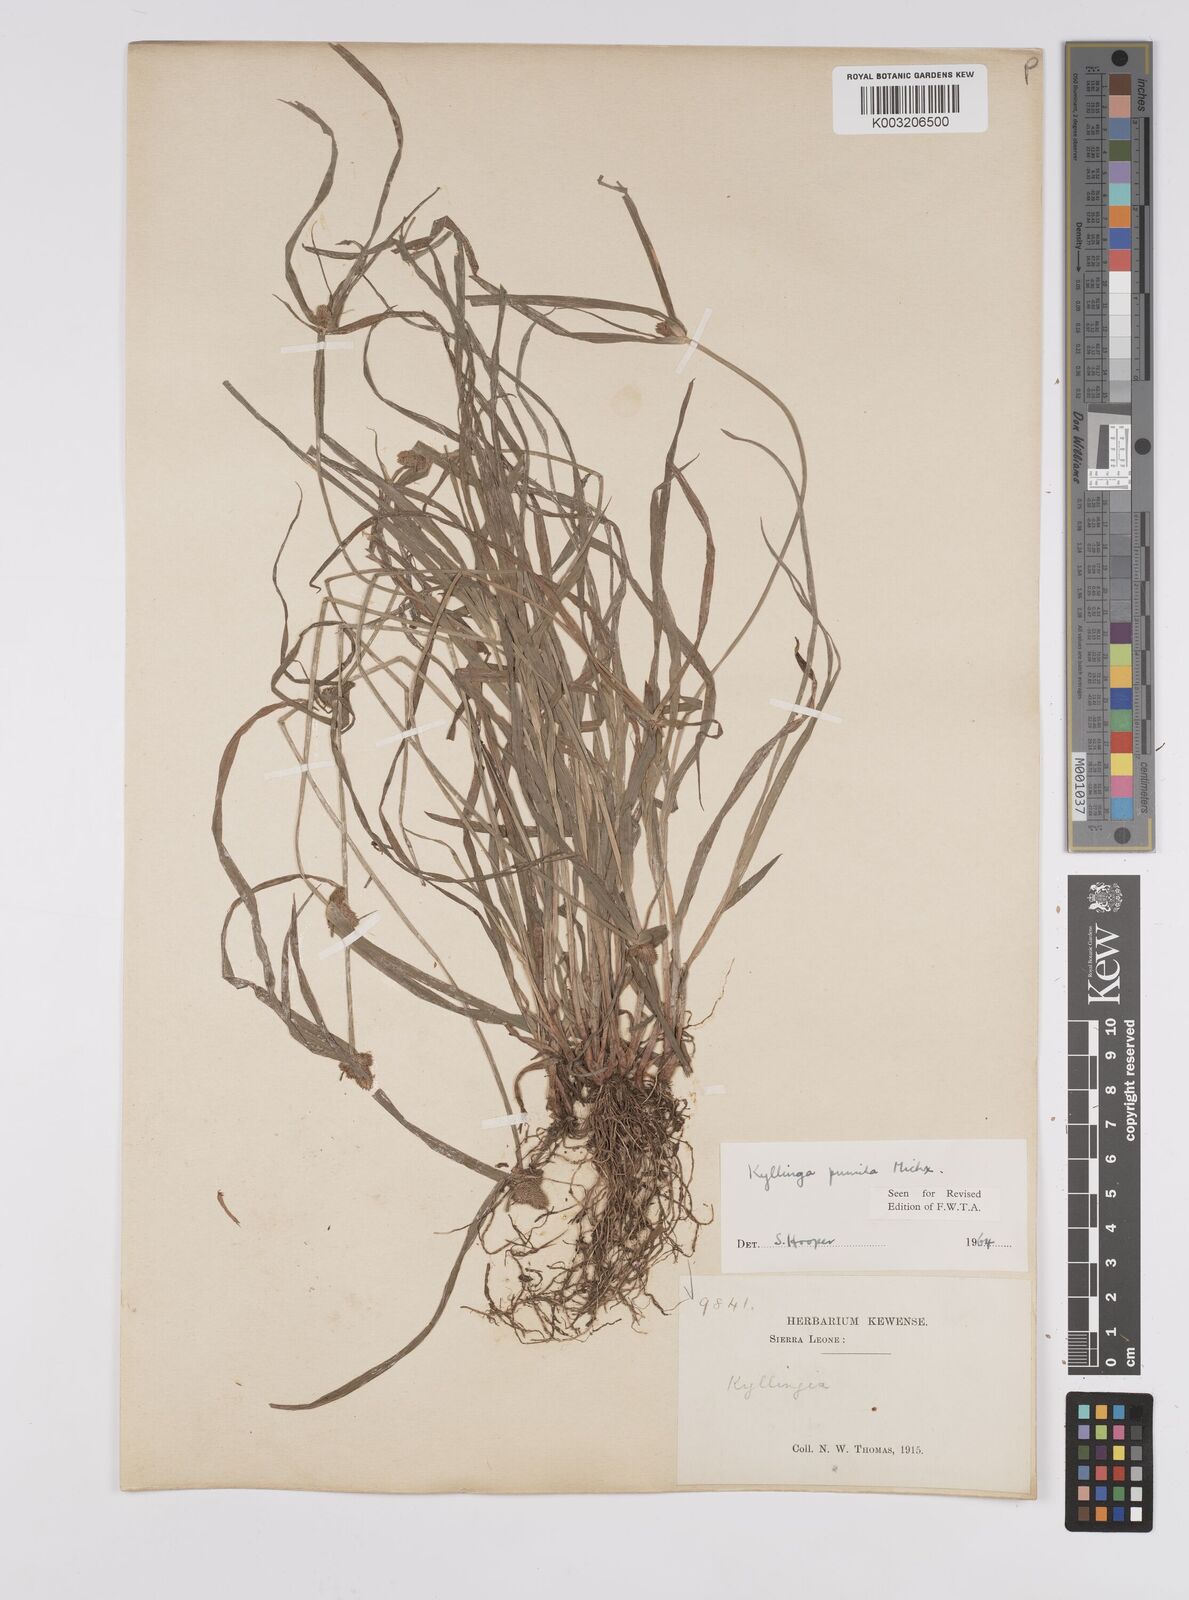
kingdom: Plantae
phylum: Tracheophyta
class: Liliopsida
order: Poales
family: Cyperaceae
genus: Cyperus
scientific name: Cyperus
